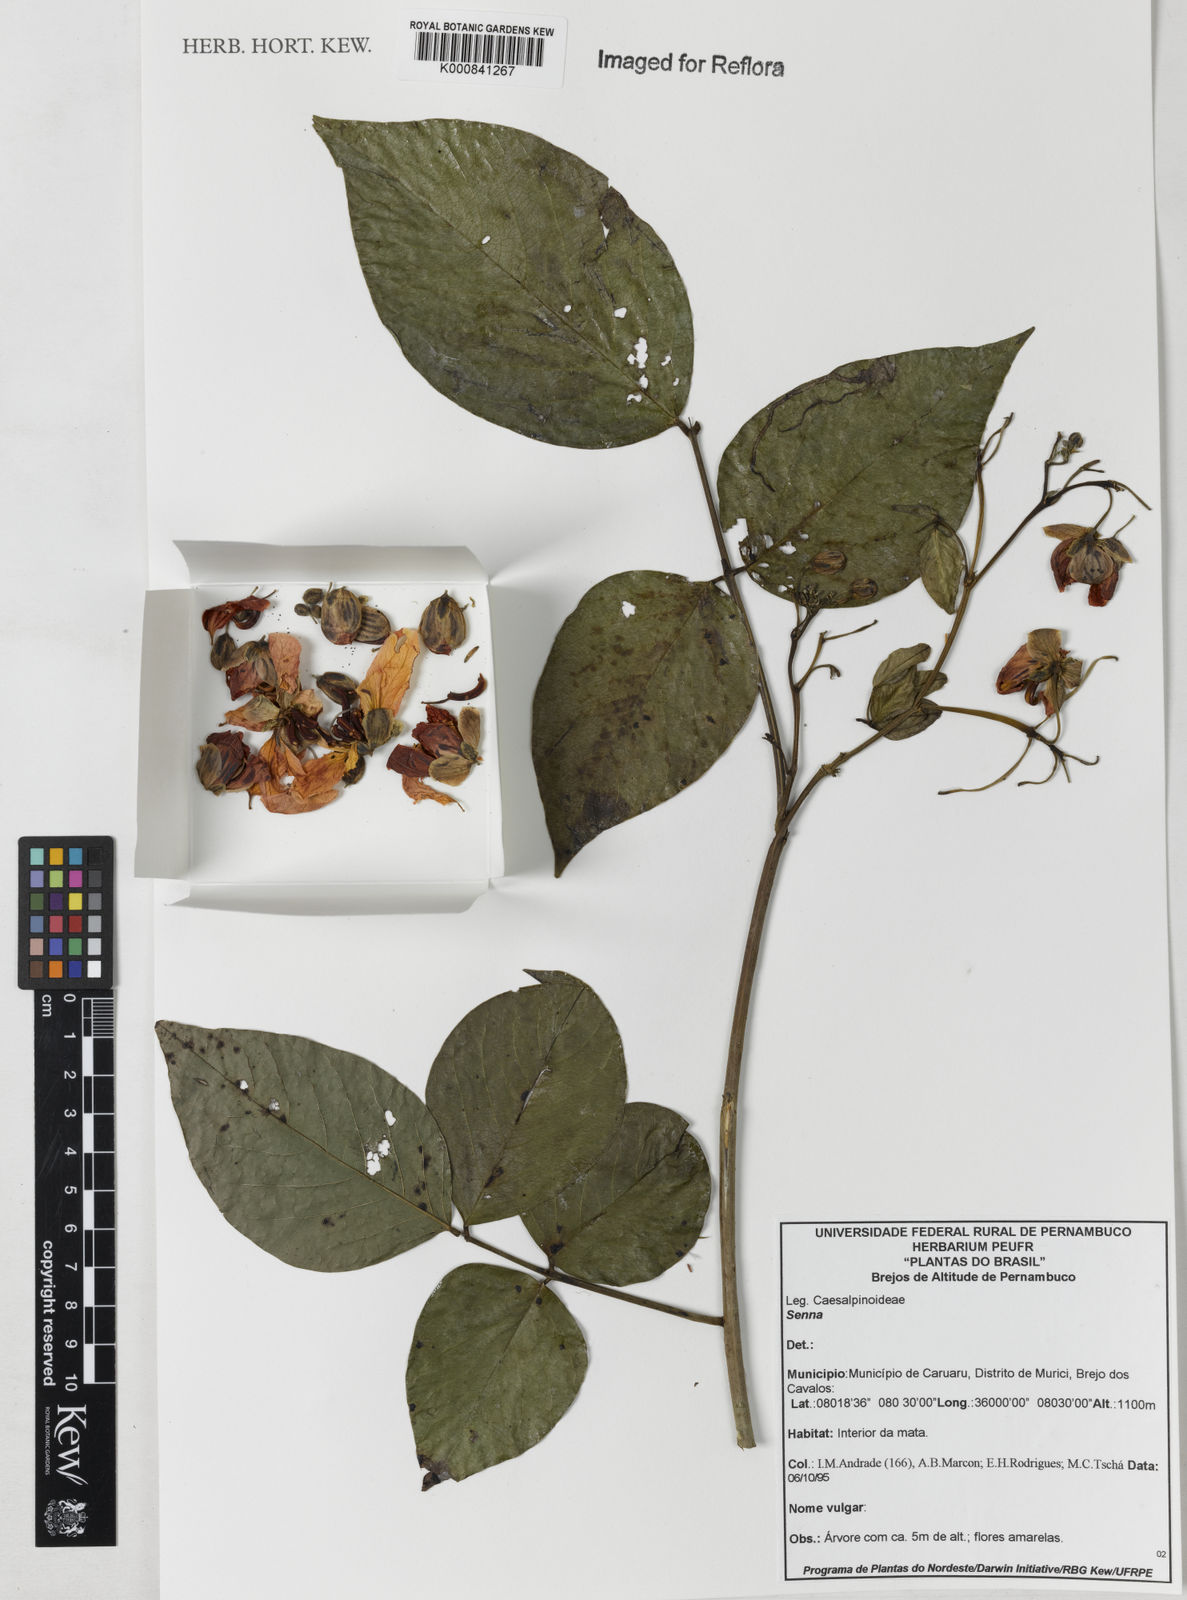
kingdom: Plantae
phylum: Tracheophyta
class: Magnoliopsida
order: Fabales
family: Fabaceae
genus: Senna
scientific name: Senna georgica
